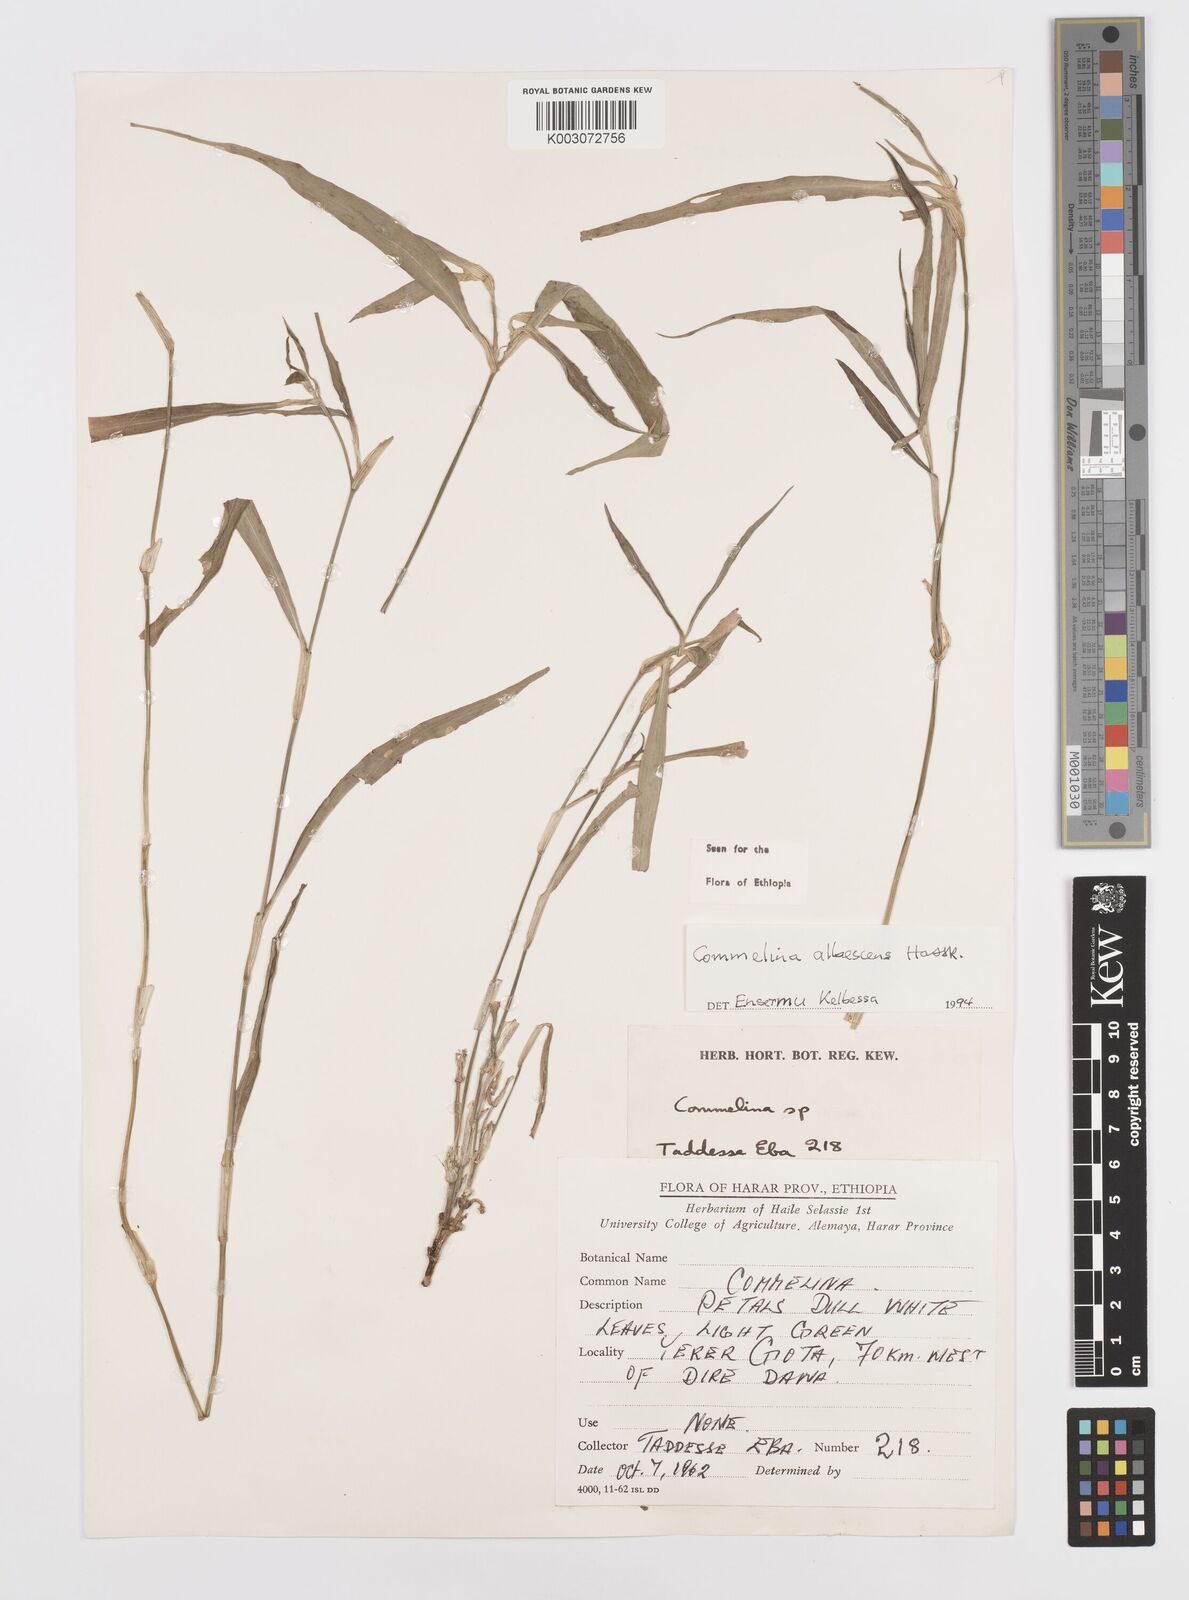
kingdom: Plantae
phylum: Tracheophyta
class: Liliopsida
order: Commelinales
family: Commelinaceae
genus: Commelina
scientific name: Commelina albescens
